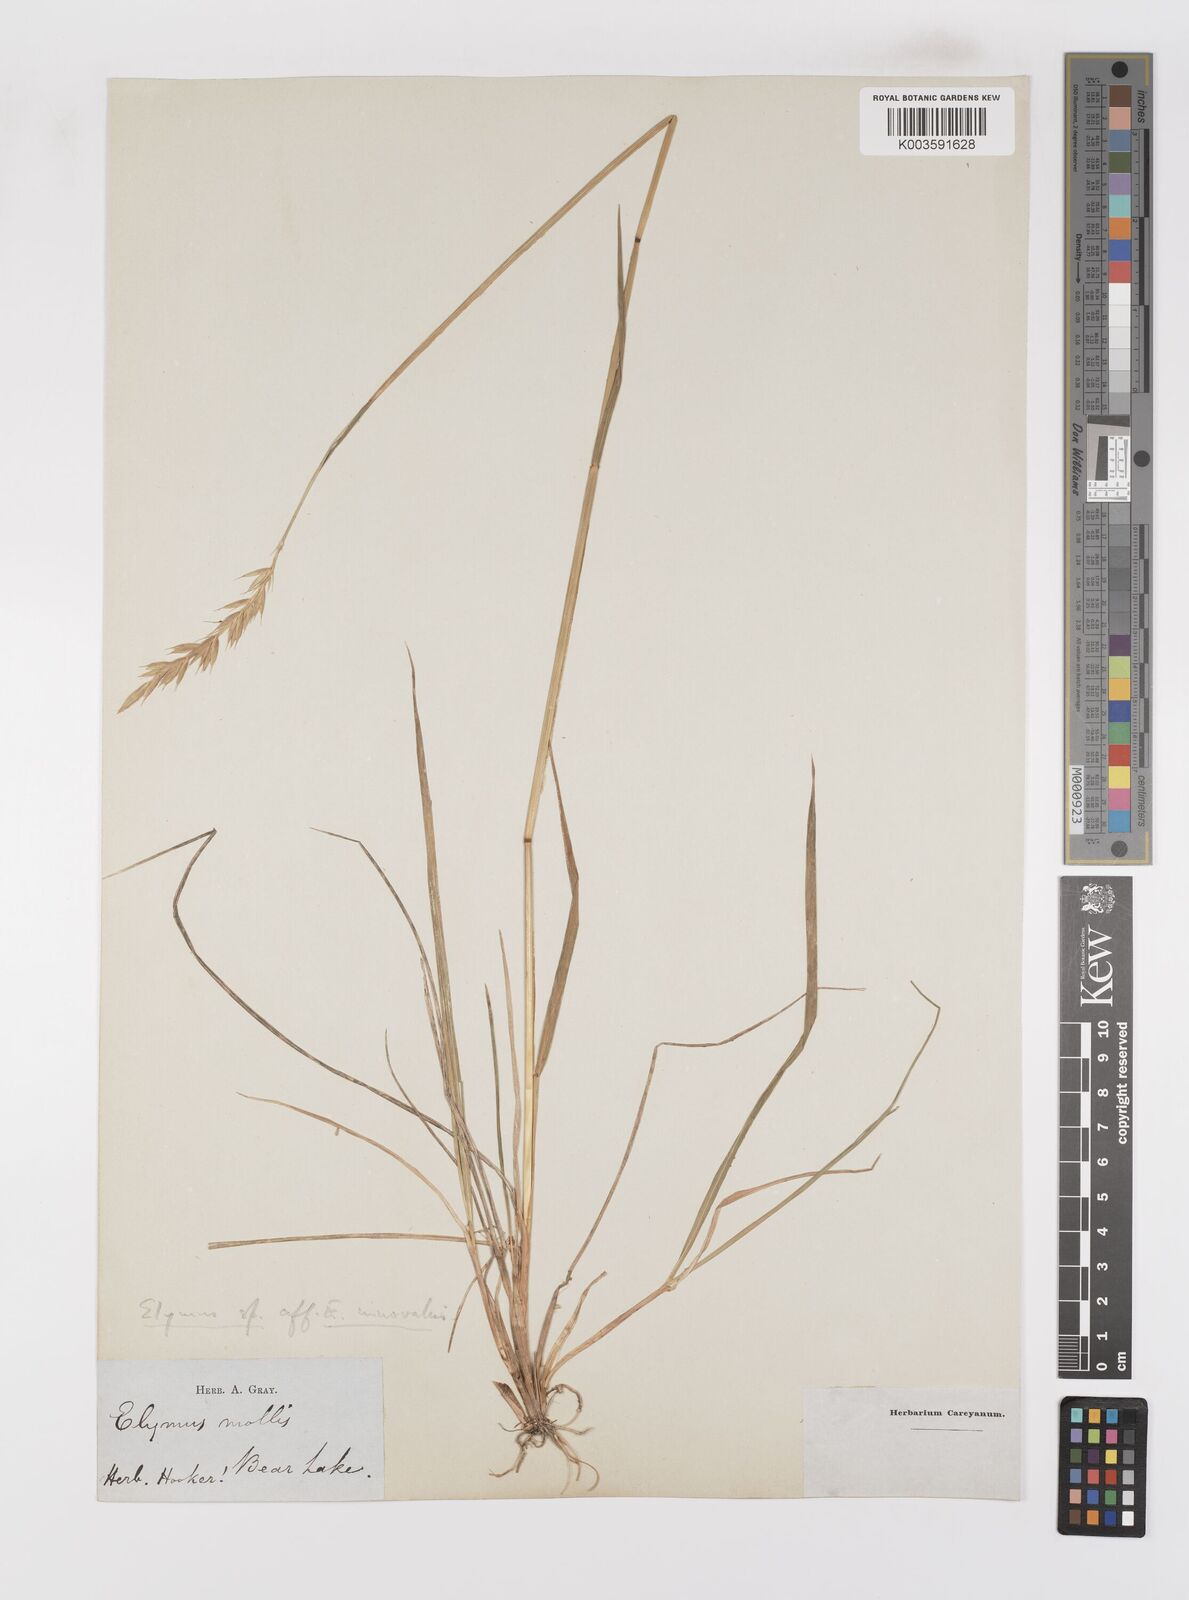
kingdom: Plantae
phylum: Tracheophyta
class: Liliopsida
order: Poales
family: Poaceae
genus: Leymus
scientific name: Leymus
